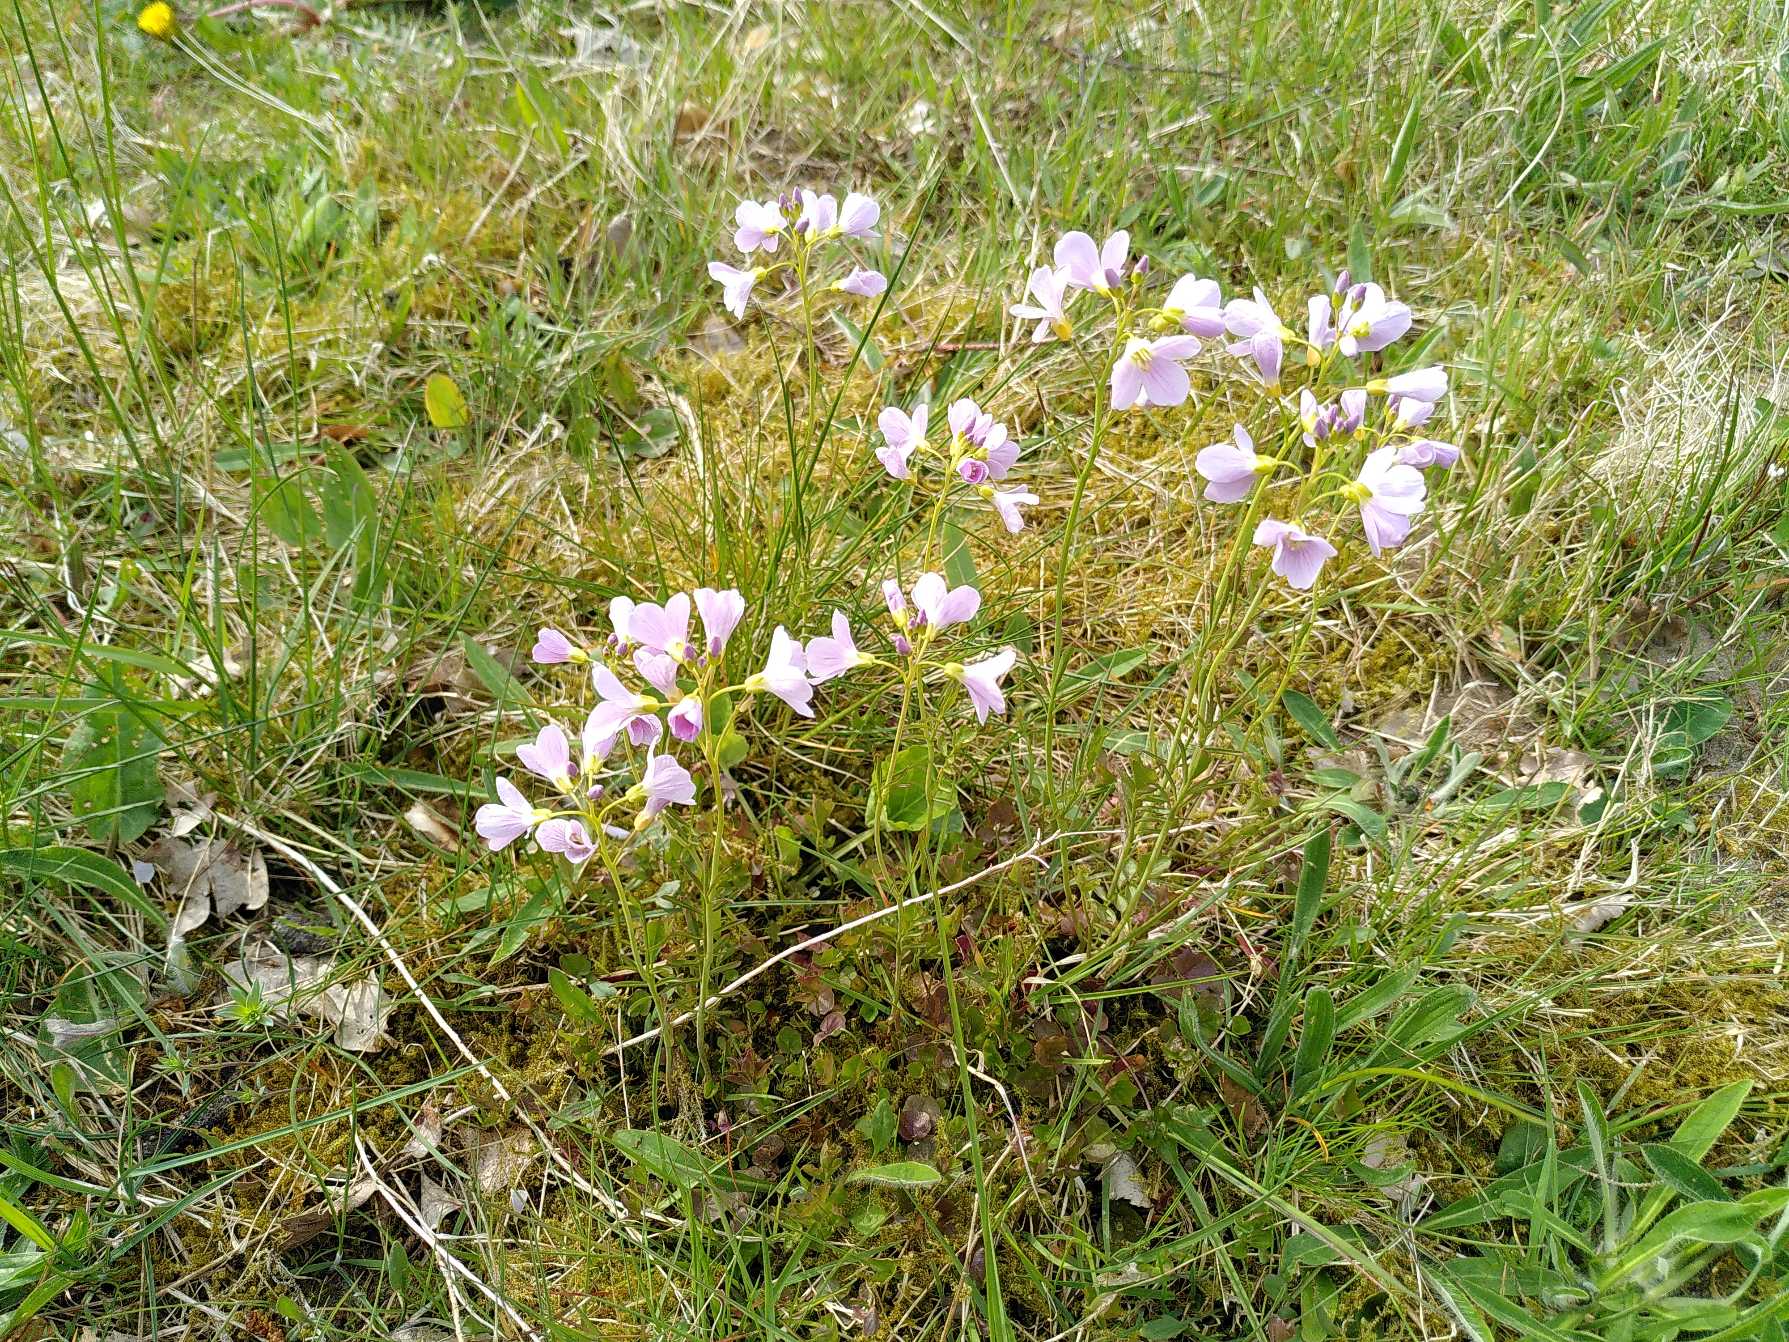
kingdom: Plantae
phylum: Tracheophyta
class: Magnoliopsida
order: Brassicales
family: Brassicaceae
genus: Cardamine
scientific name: Cardamine pratensis
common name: Engkarse
